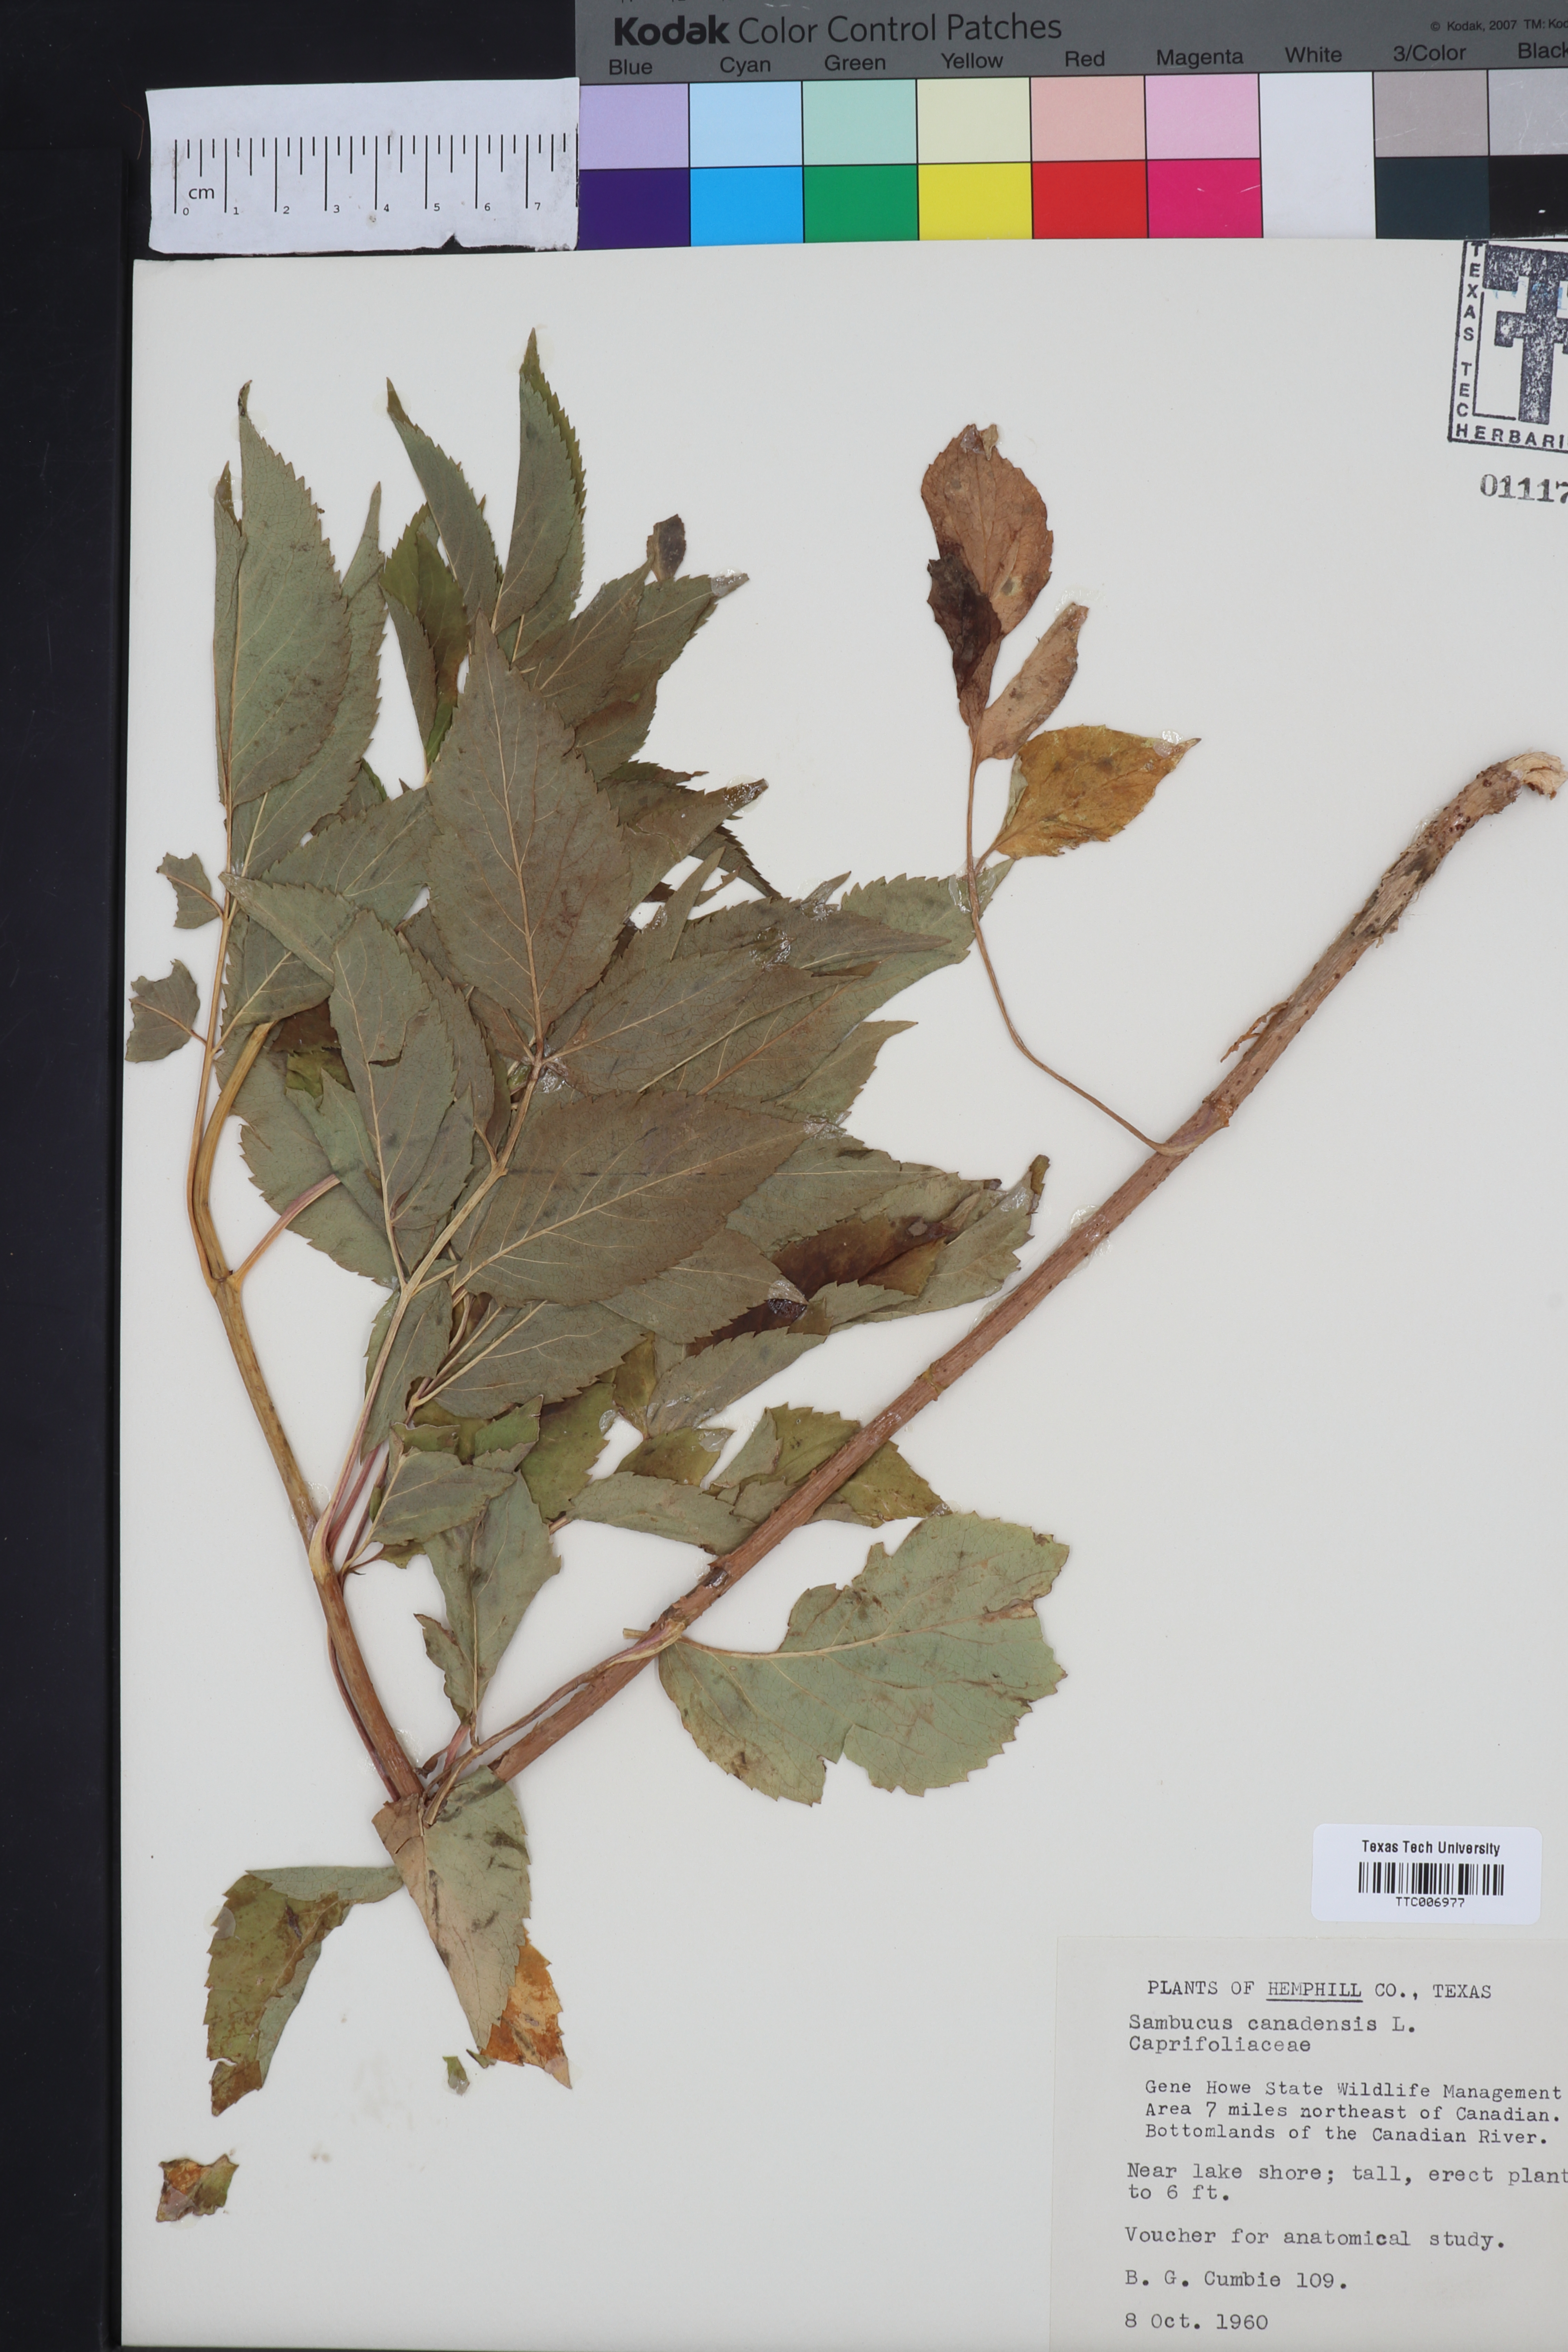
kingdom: Plantae
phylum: Tracheophyta
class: Magnoliopsida
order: Dipsacales
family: Viburnaceae
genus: Sambucus
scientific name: Sambucus canadensis
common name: American elder
